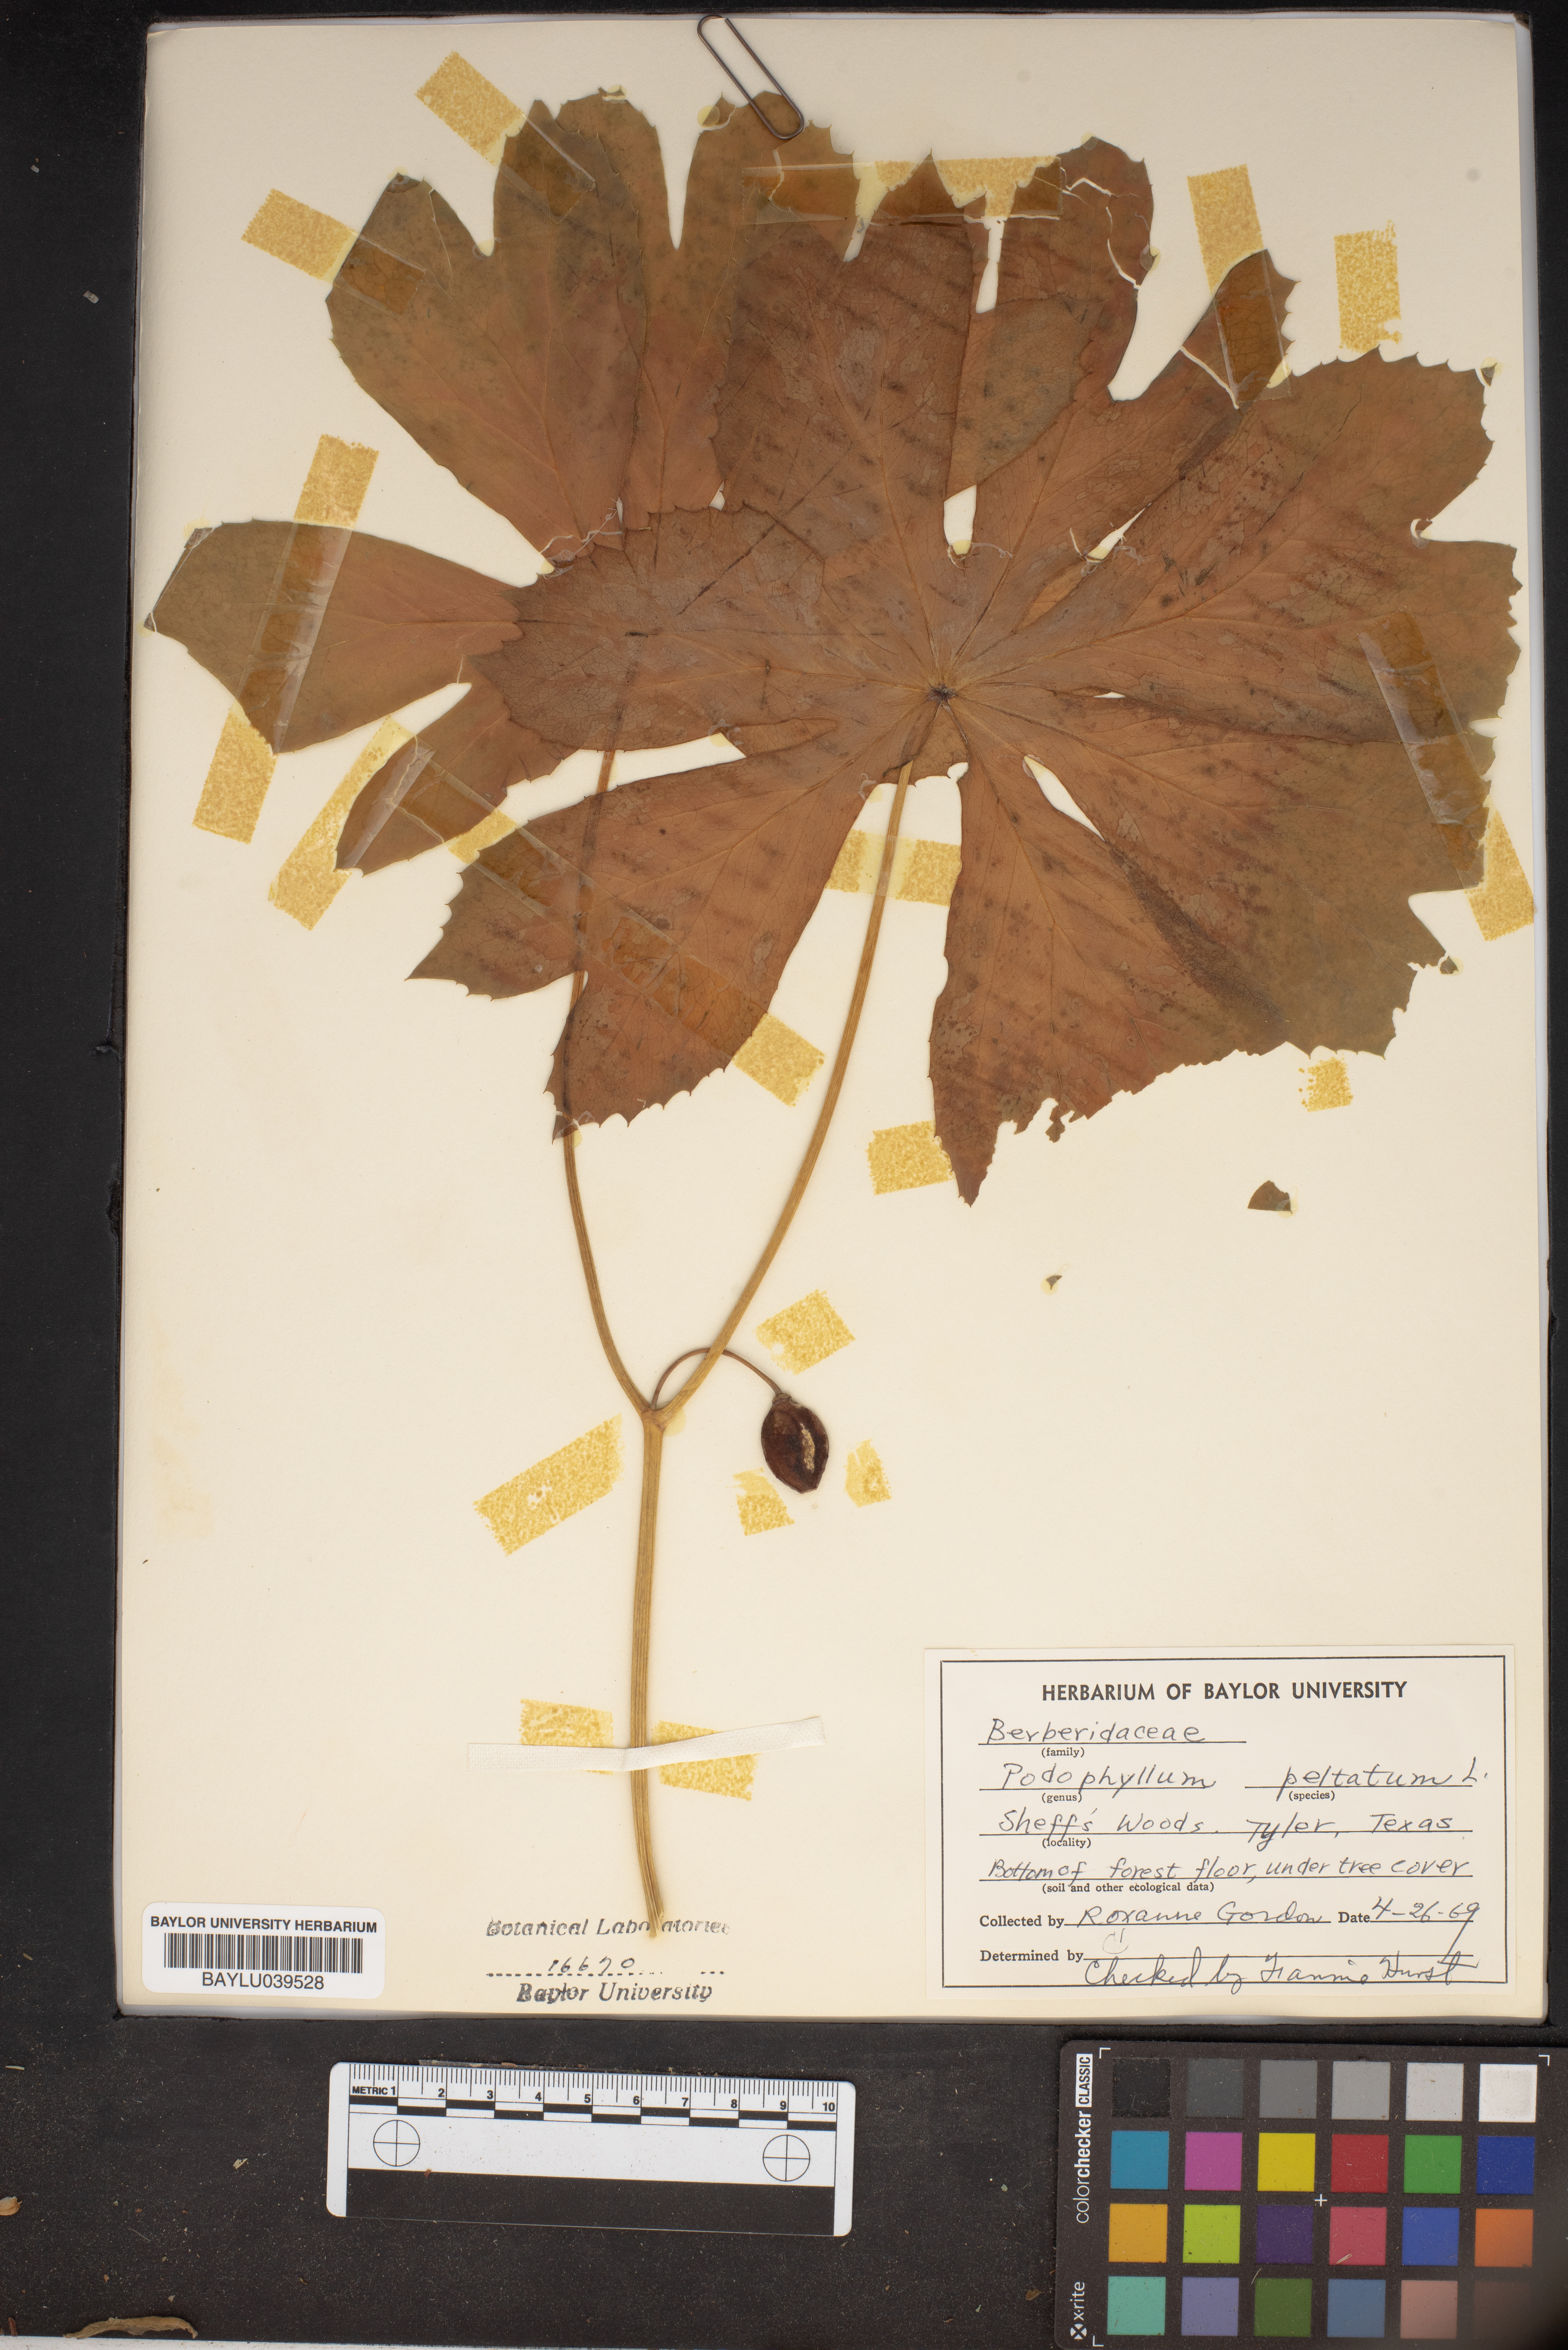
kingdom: Plantae
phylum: Tracheophyta
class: Magnoliopsida
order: Ranunculales
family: Berberidaceae
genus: Podophyllum
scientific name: Podophyllum peltatum
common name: Wild mandrake
